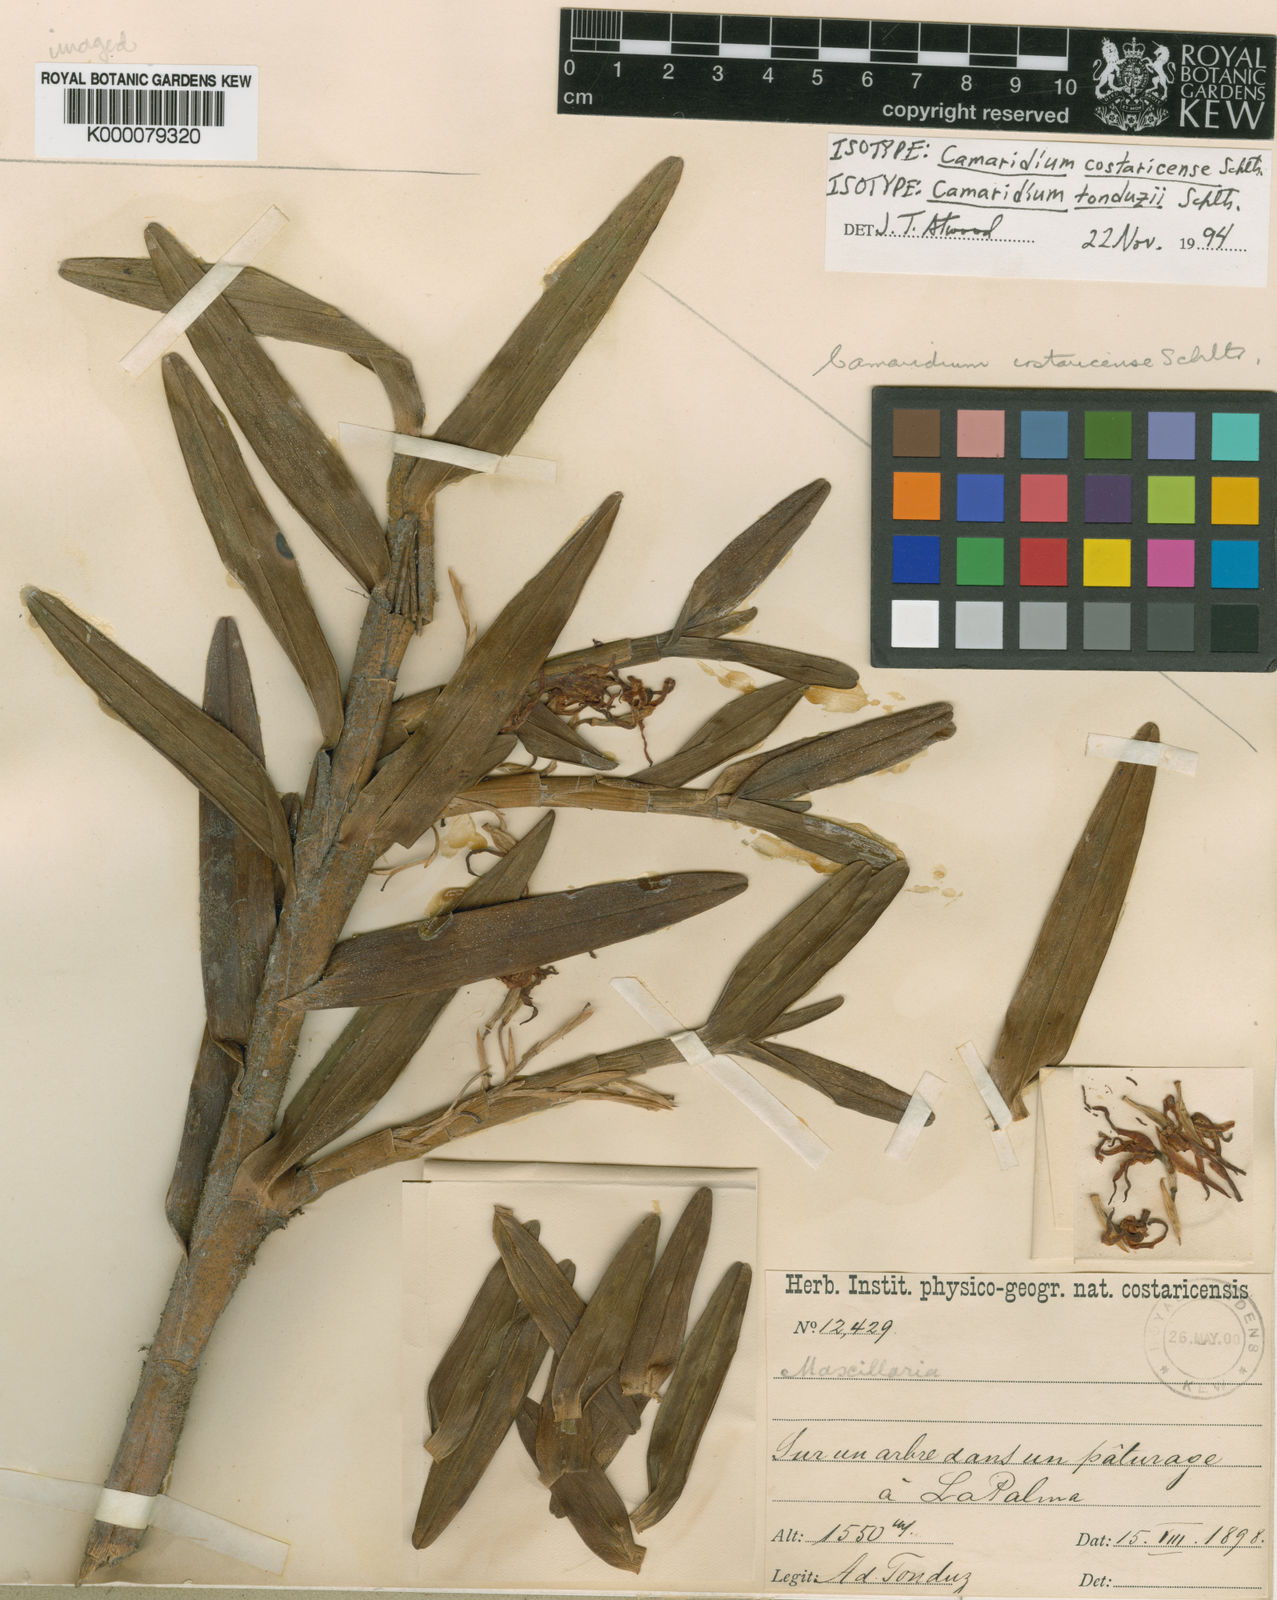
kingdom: Plantae
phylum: Tracheophyta
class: Liliopsida
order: Asparagales
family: Orchidaceae
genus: Maxillaria
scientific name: Maxillaria tonduzii
